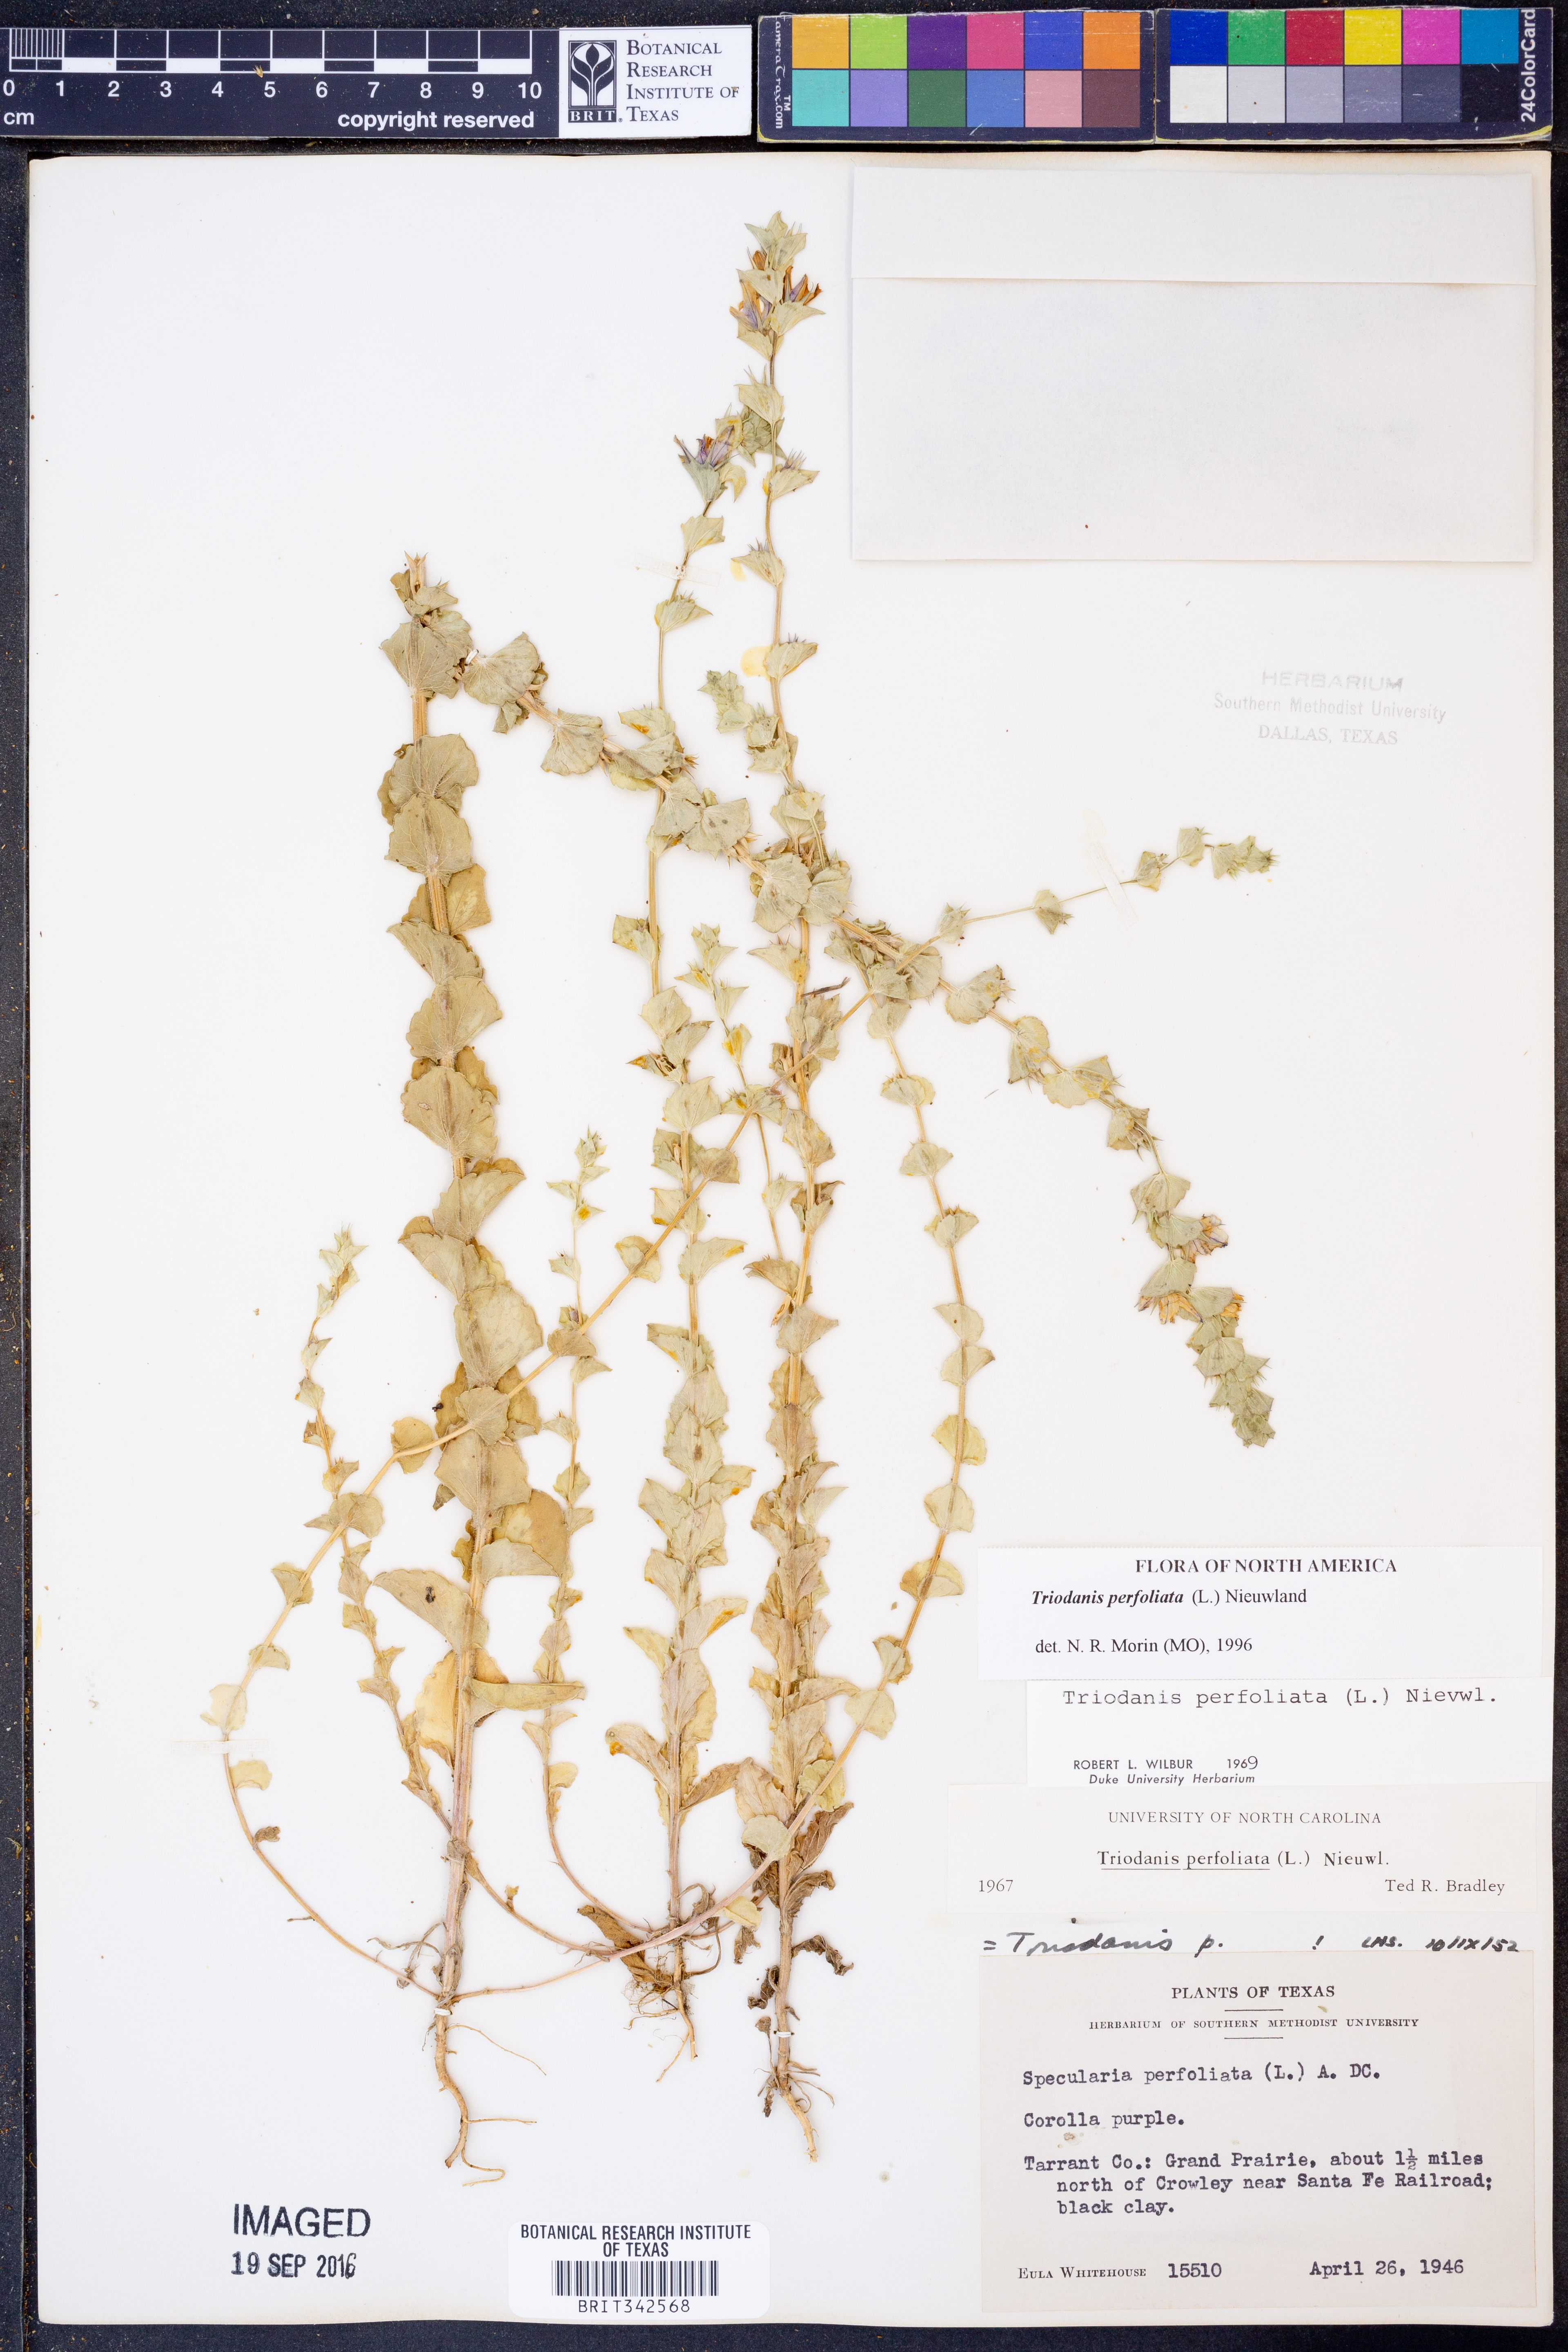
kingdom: Plantae
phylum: Tracheophyta
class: Magnoliopsida
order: Asterales
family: Campanulaceae
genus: Triodanis
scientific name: Triodanis perfoliata
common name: Clasping venus' looking-glass
